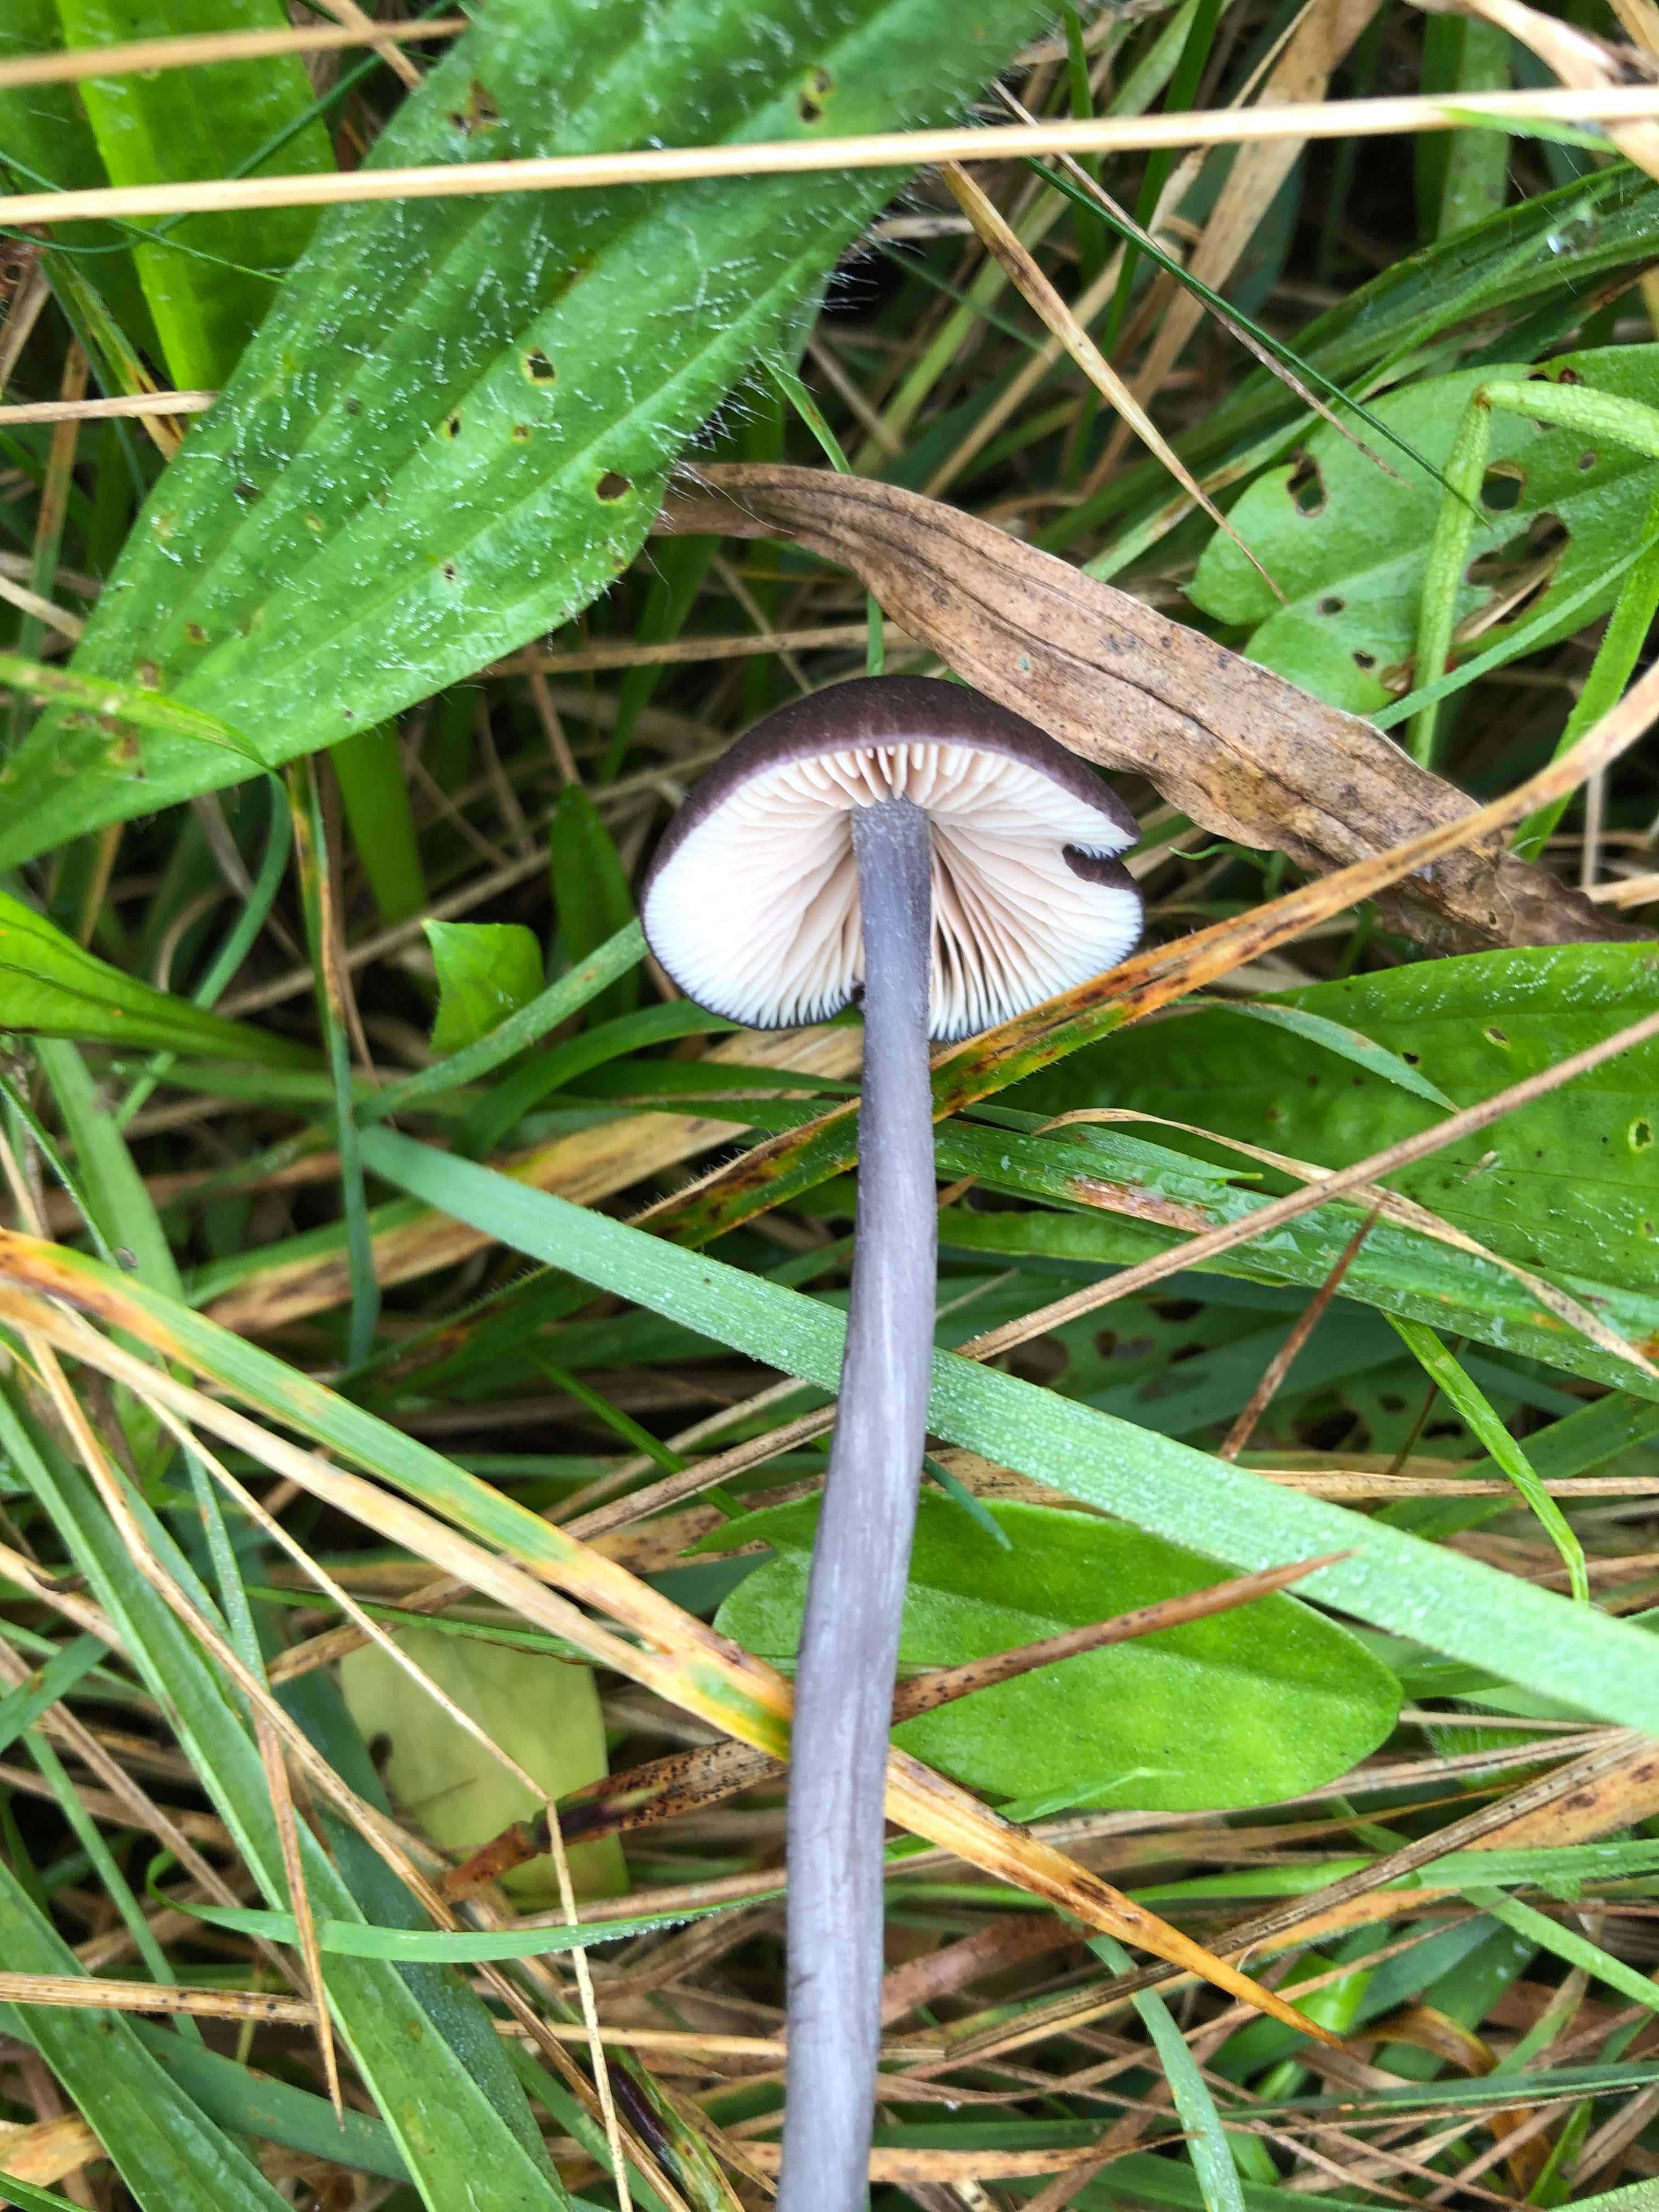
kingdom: Fungi
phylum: Basidiomycota
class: Agaricomycetes
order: Agaricales
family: Entolomataceae
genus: Entoloma
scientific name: Entoloma viiduense
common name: purpurbrun rødblad
